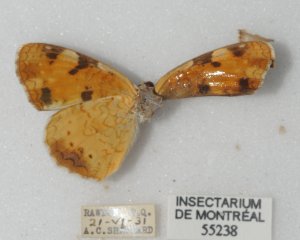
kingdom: Animalia
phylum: Arthropoda
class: Insecta
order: Lepidoptera
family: Nymphalidae
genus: Phyciodes
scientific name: Phyciodes tharos
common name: Northern Crescent
